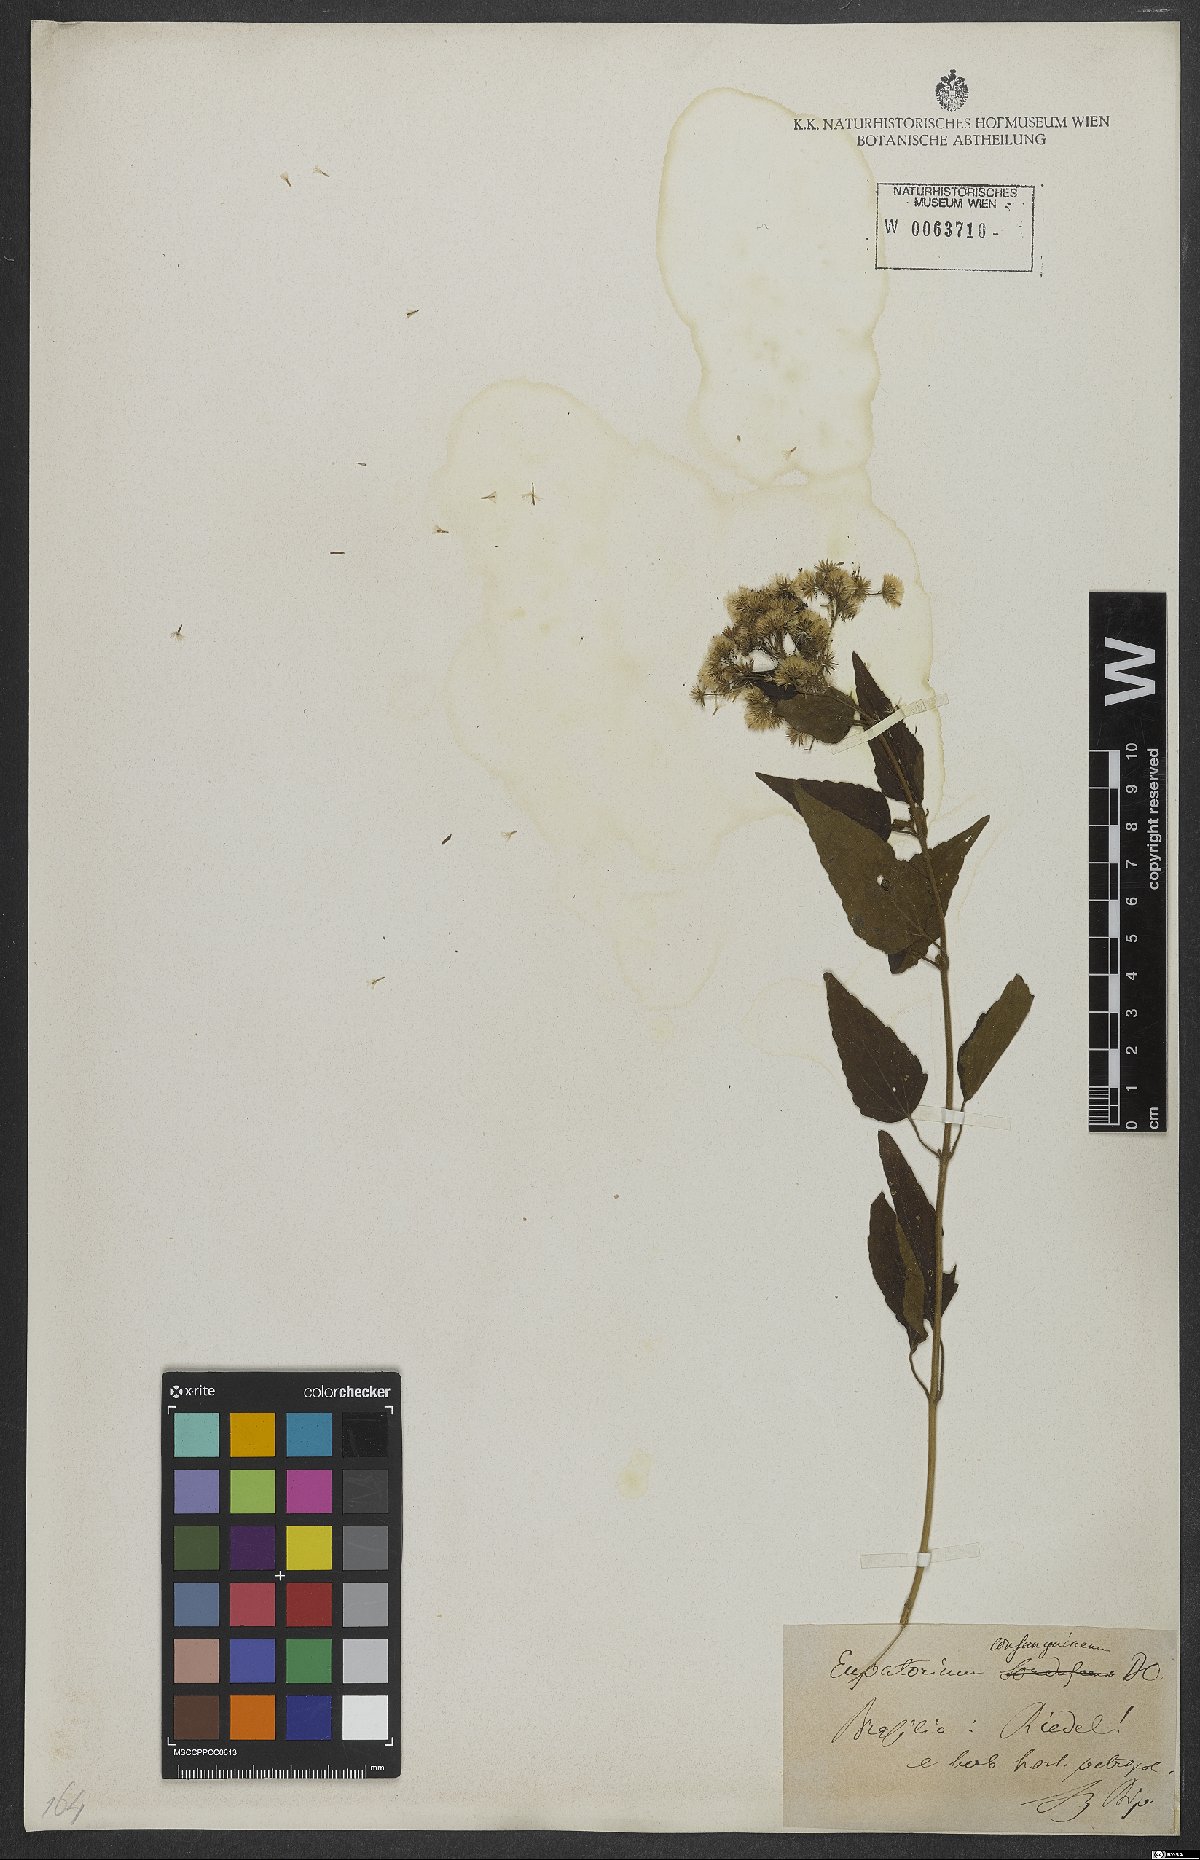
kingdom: Plantae
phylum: Tracheophyta
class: Magnoliopsida
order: Asterales
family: Asteraceae
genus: Koanophyllon
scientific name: Koanophyllon consanguineum
